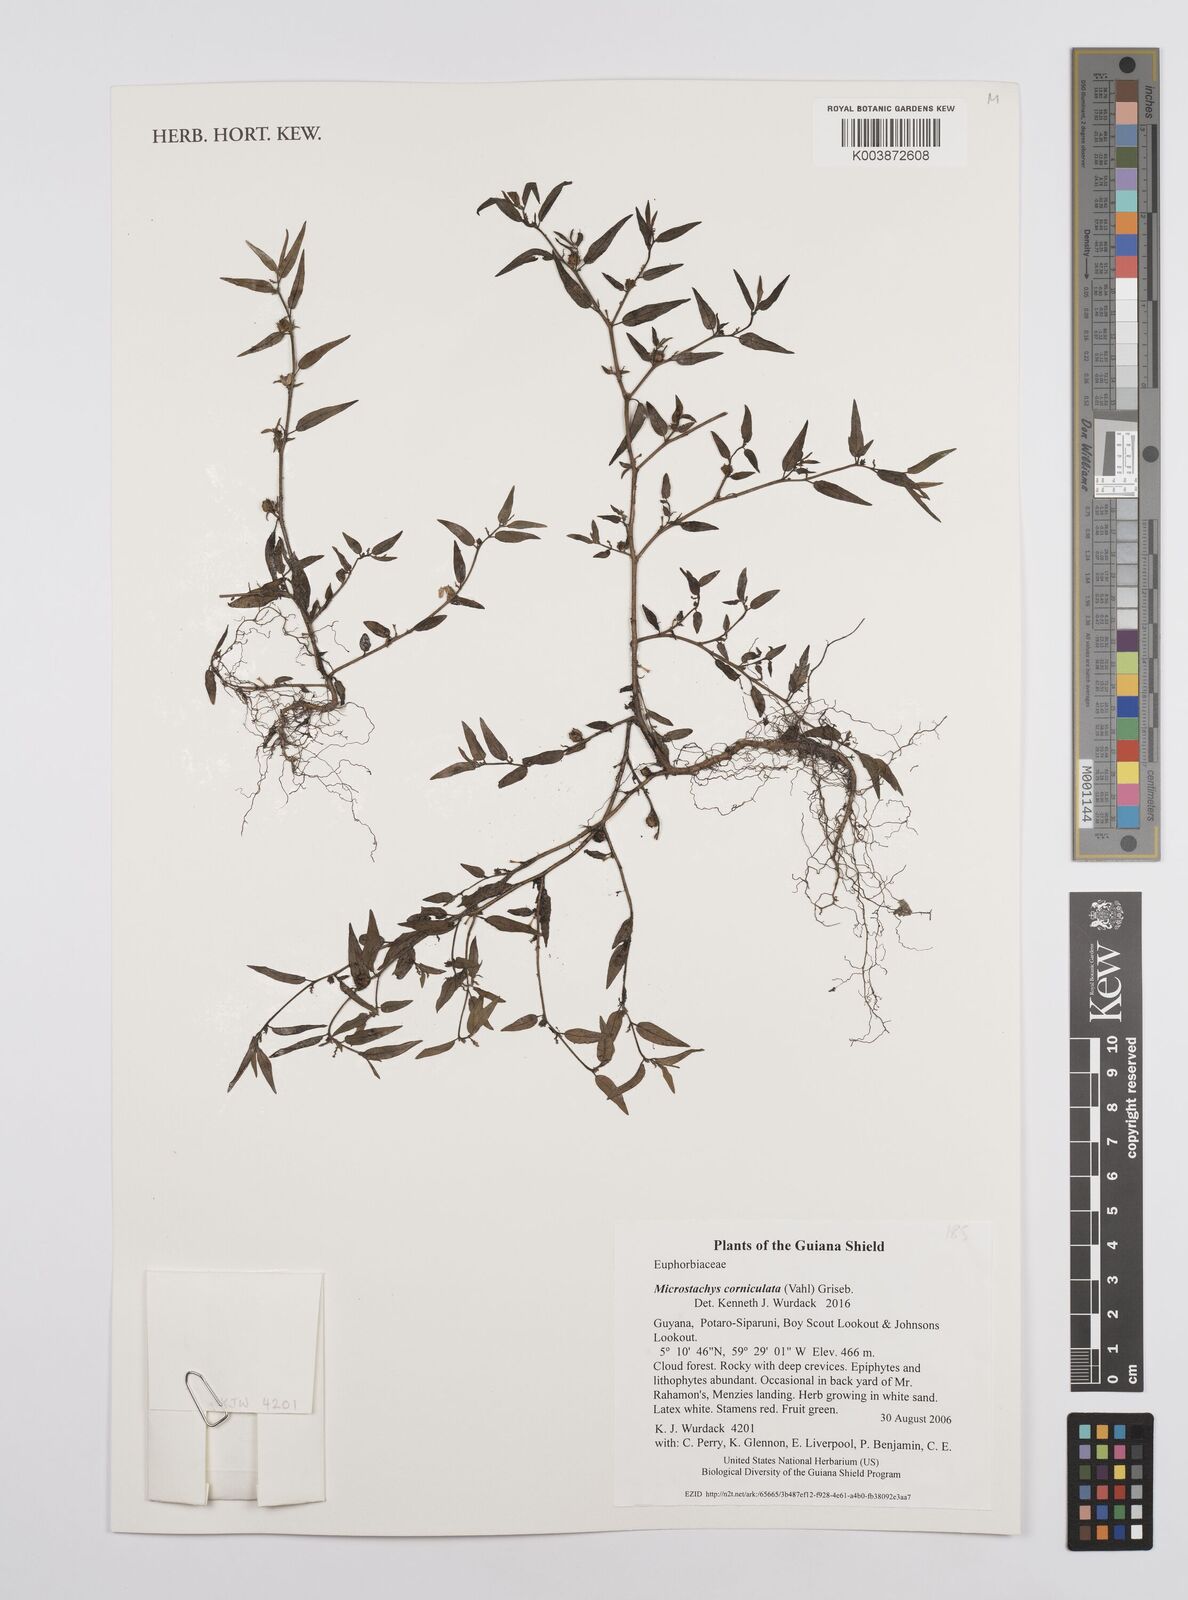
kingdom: Plantae
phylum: Tracheophyta
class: Magnoliopsida
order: Malpighiales
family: Euphorbiaceae
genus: Microstachys
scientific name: Microstachys corniculata
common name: Hato tejas
